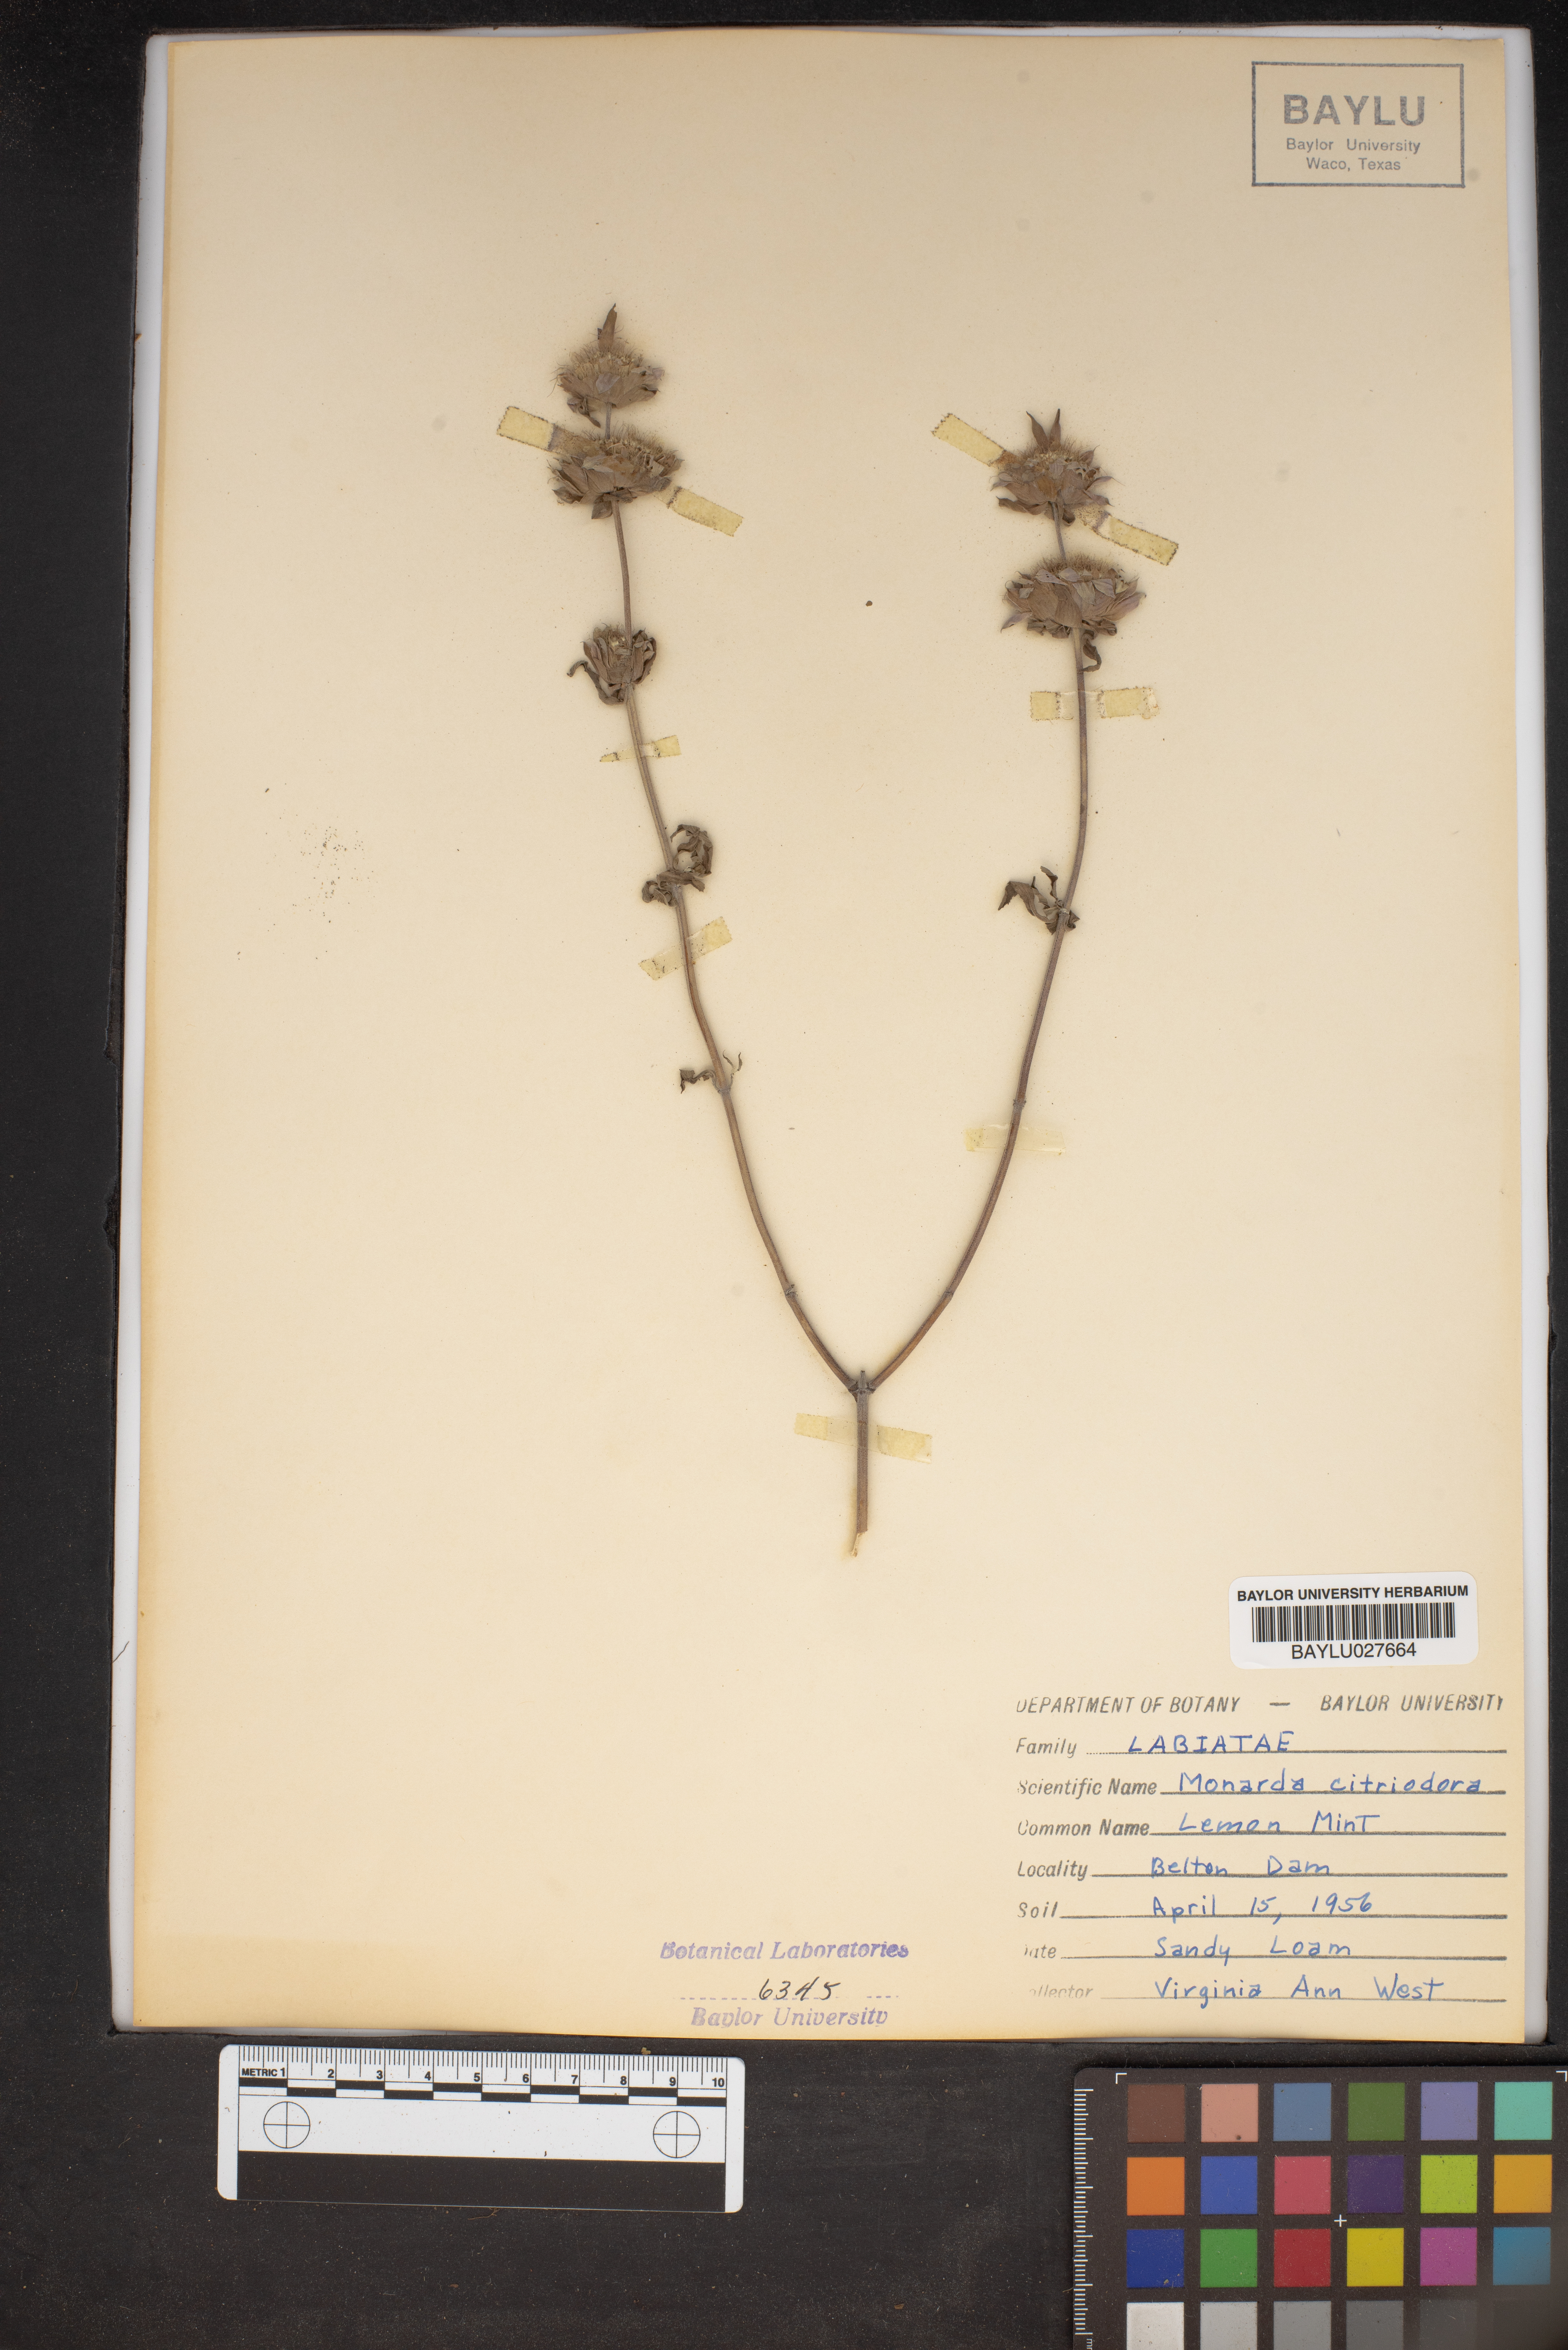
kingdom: Plantae
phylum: Tracheophyta
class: Magnoliopsida
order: Lamiales
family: Lamiaceae
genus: Monarda
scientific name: Monarda citriodora
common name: Lemon beebalm
